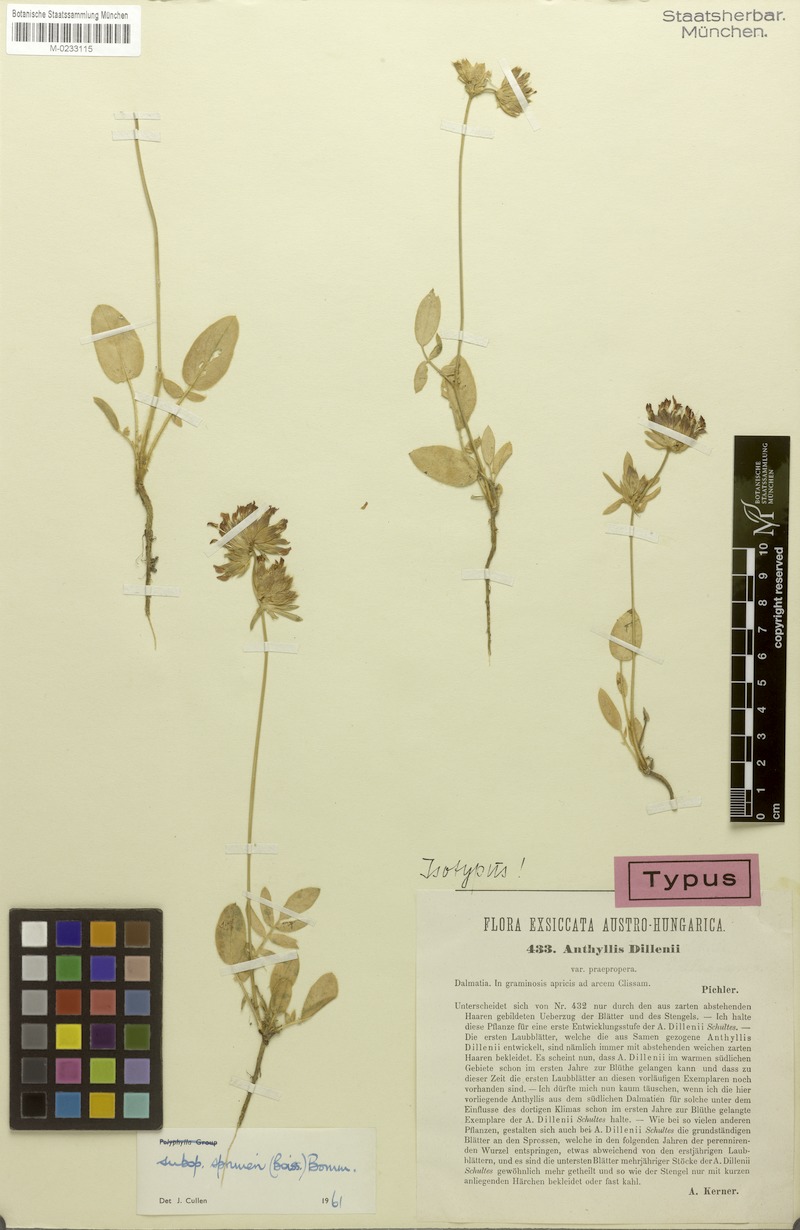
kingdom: Plantae
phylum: Tracheophyta
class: Magnoliopsida
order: Fabales
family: Fabaceae
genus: Anthyllis
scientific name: Anthyllis vulneraria
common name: Kidney vetch
